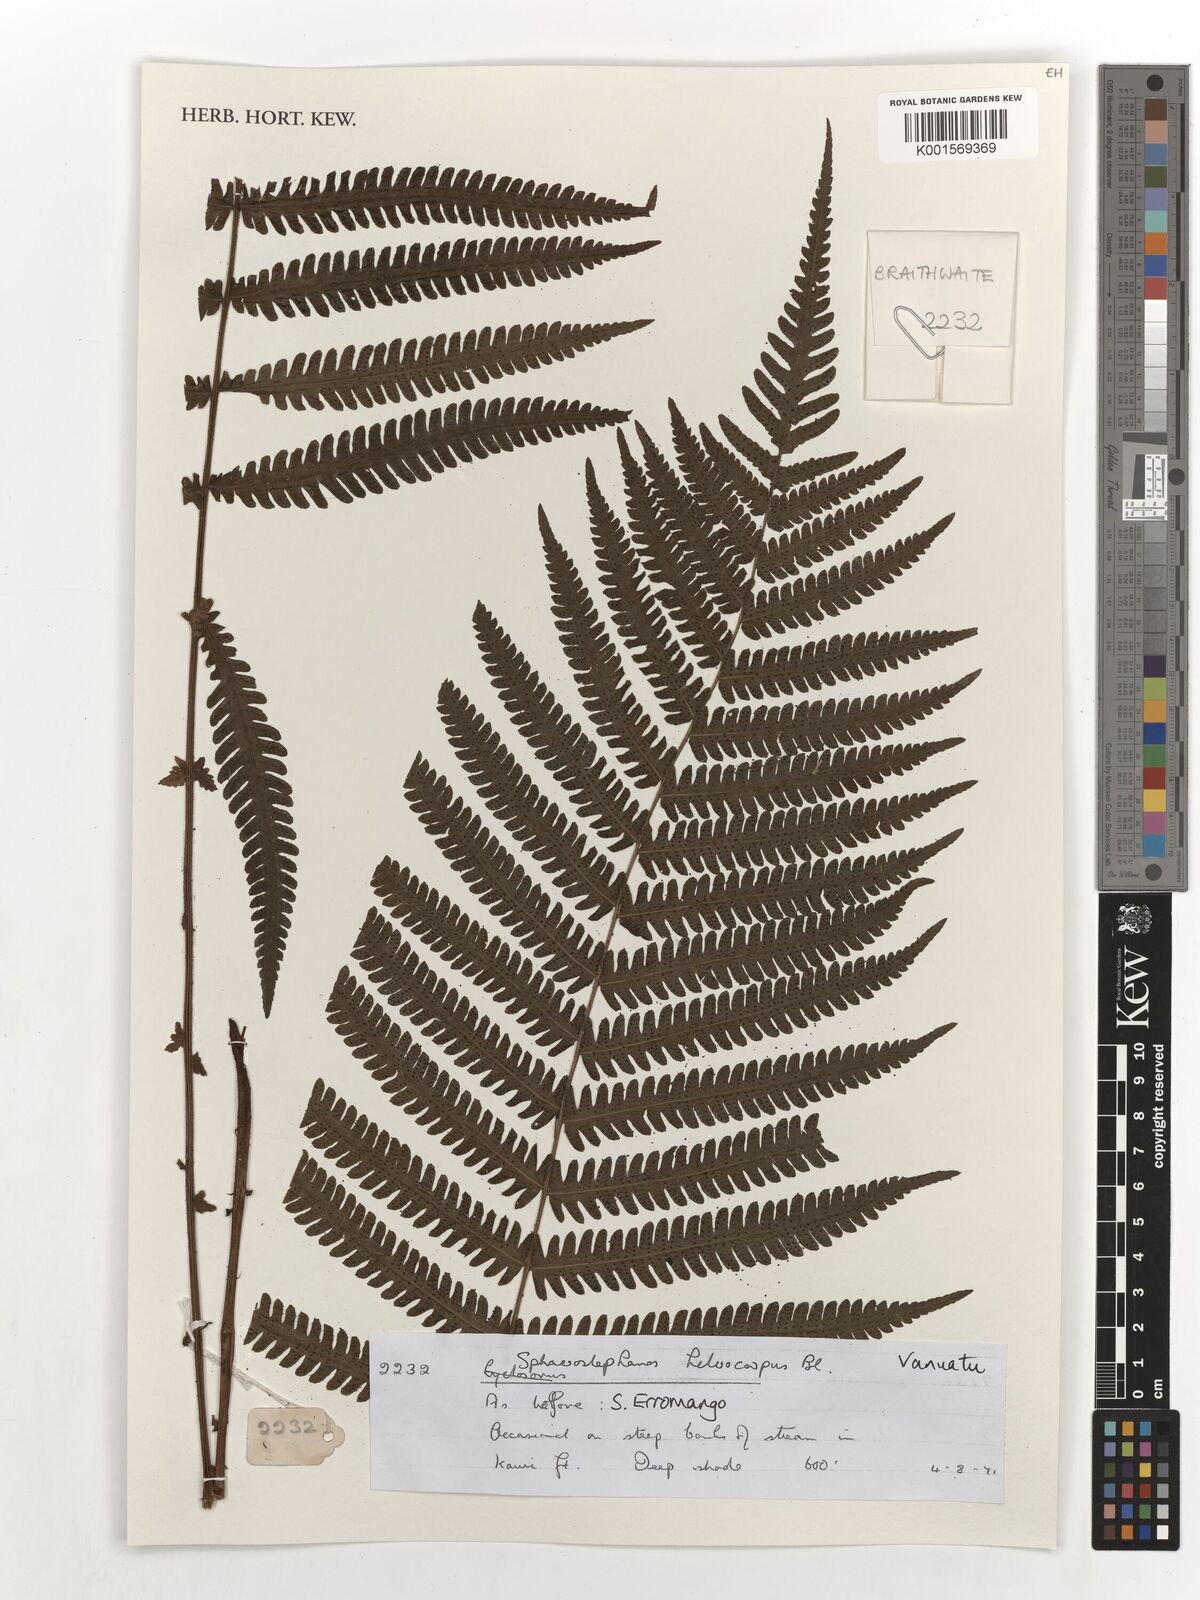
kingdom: Plantae
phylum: Tracheophyta
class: Polypodiopsida
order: Polypodiales
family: Thelypteridaceae
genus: Sphaerostephanos
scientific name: Sphaerostephanos heterocarpos
